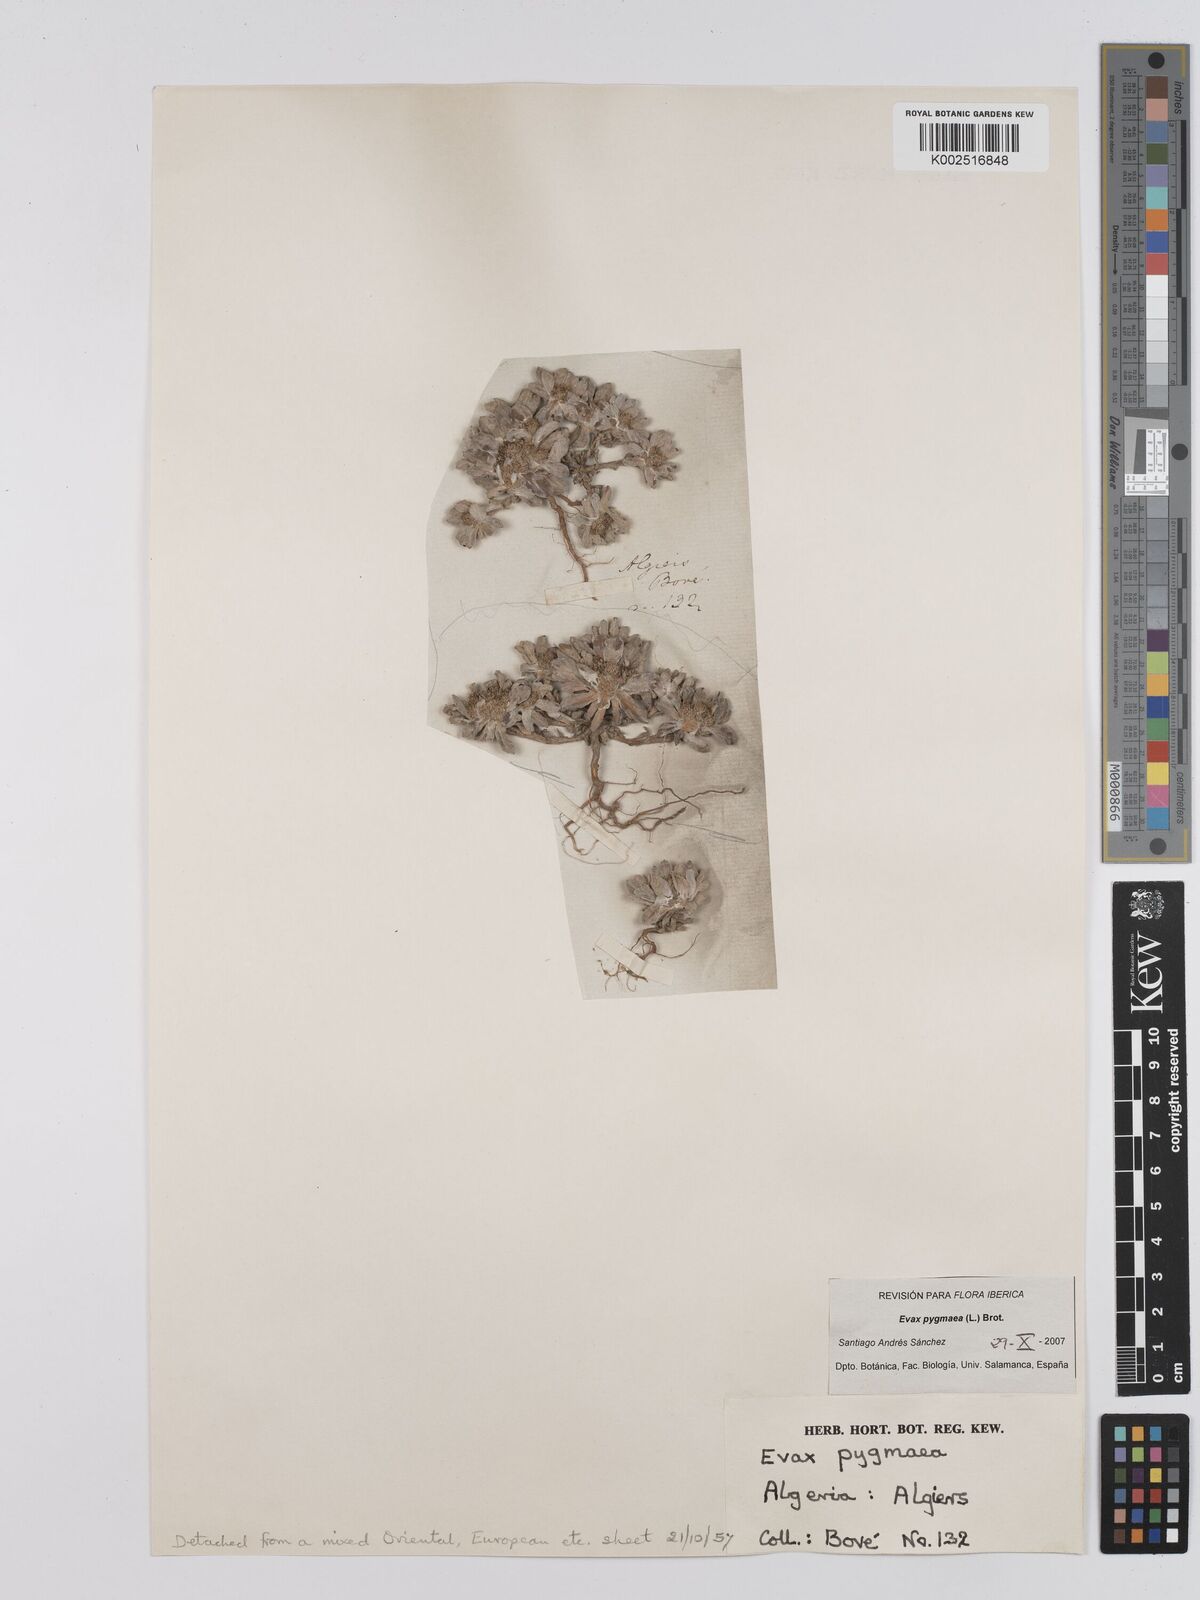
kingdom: Plantae
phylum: Tracheophyta
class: Magnoliopsida
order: Asterales
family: Asteraceae
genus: Filago
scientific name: Filago pygmaea
